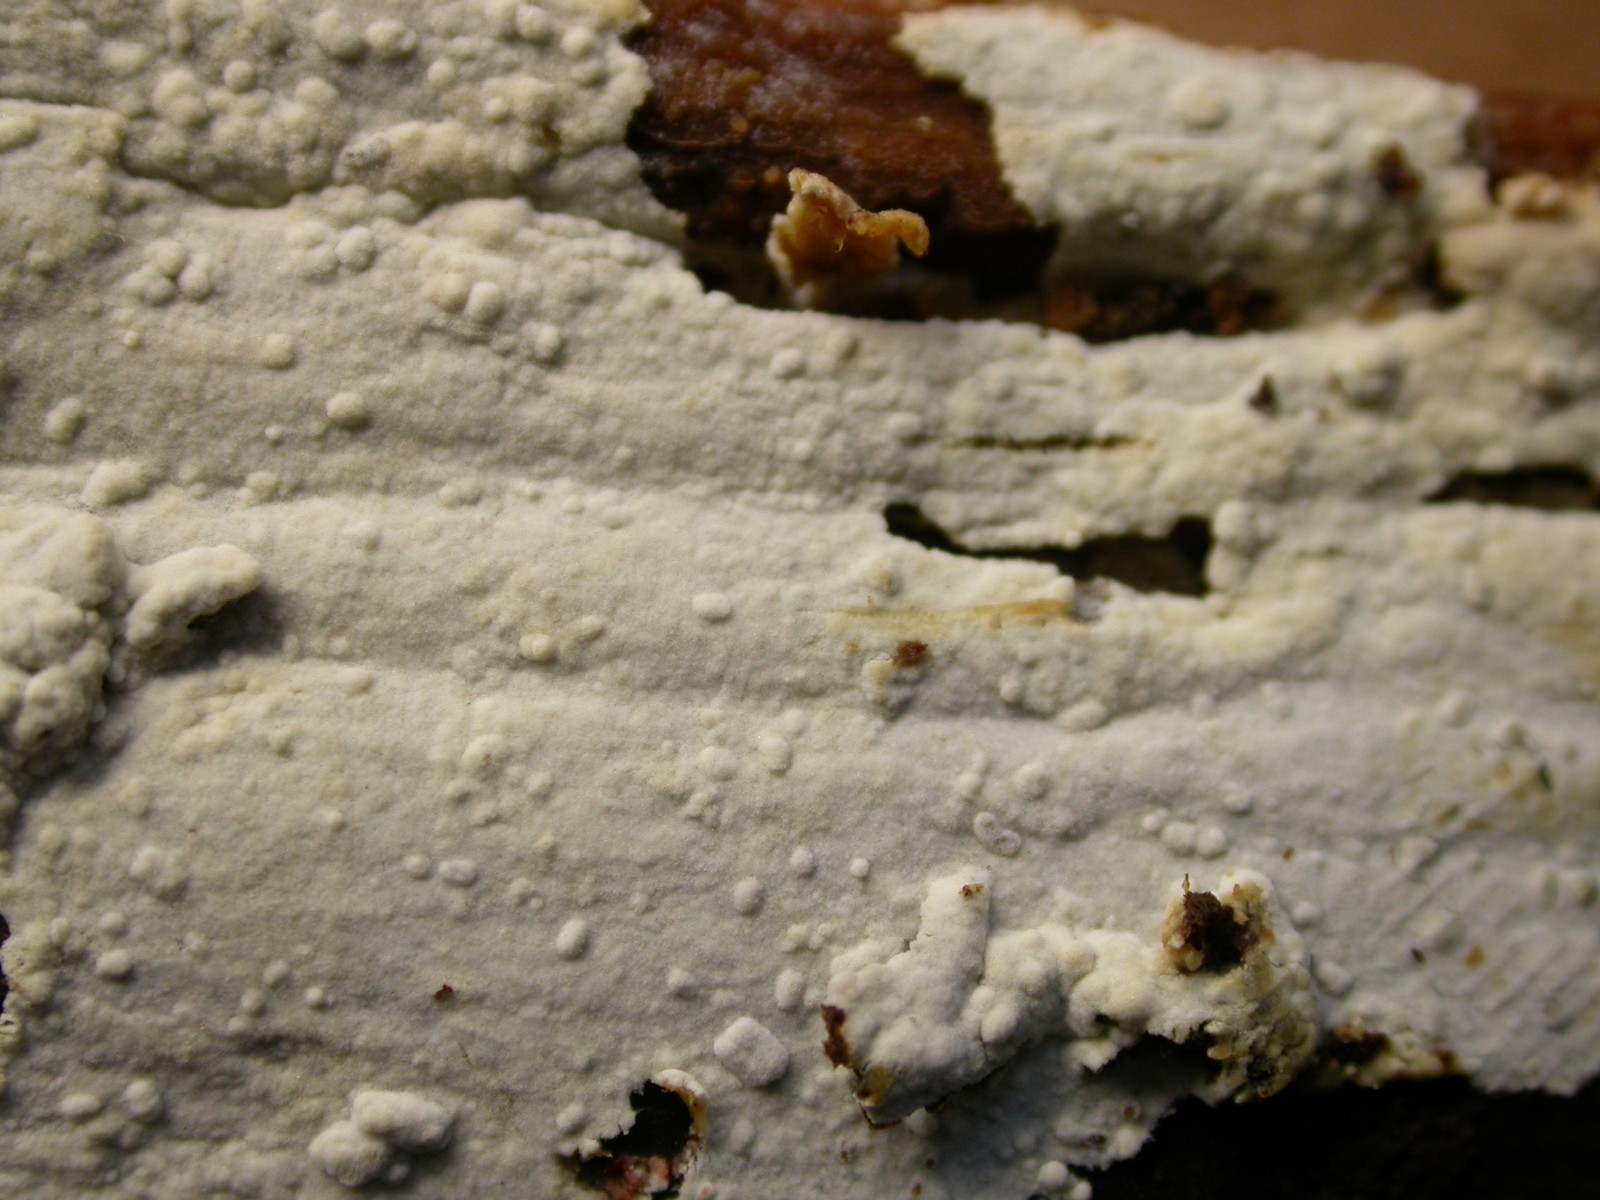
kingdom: Fungi
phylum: Basidiomycota
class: Agaricomycetes
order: Cantharellales
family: Botryobasidiaceae
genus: Botryobasidium
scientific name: Botryobasidium subcoronatum
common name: almindelig spindhinde
